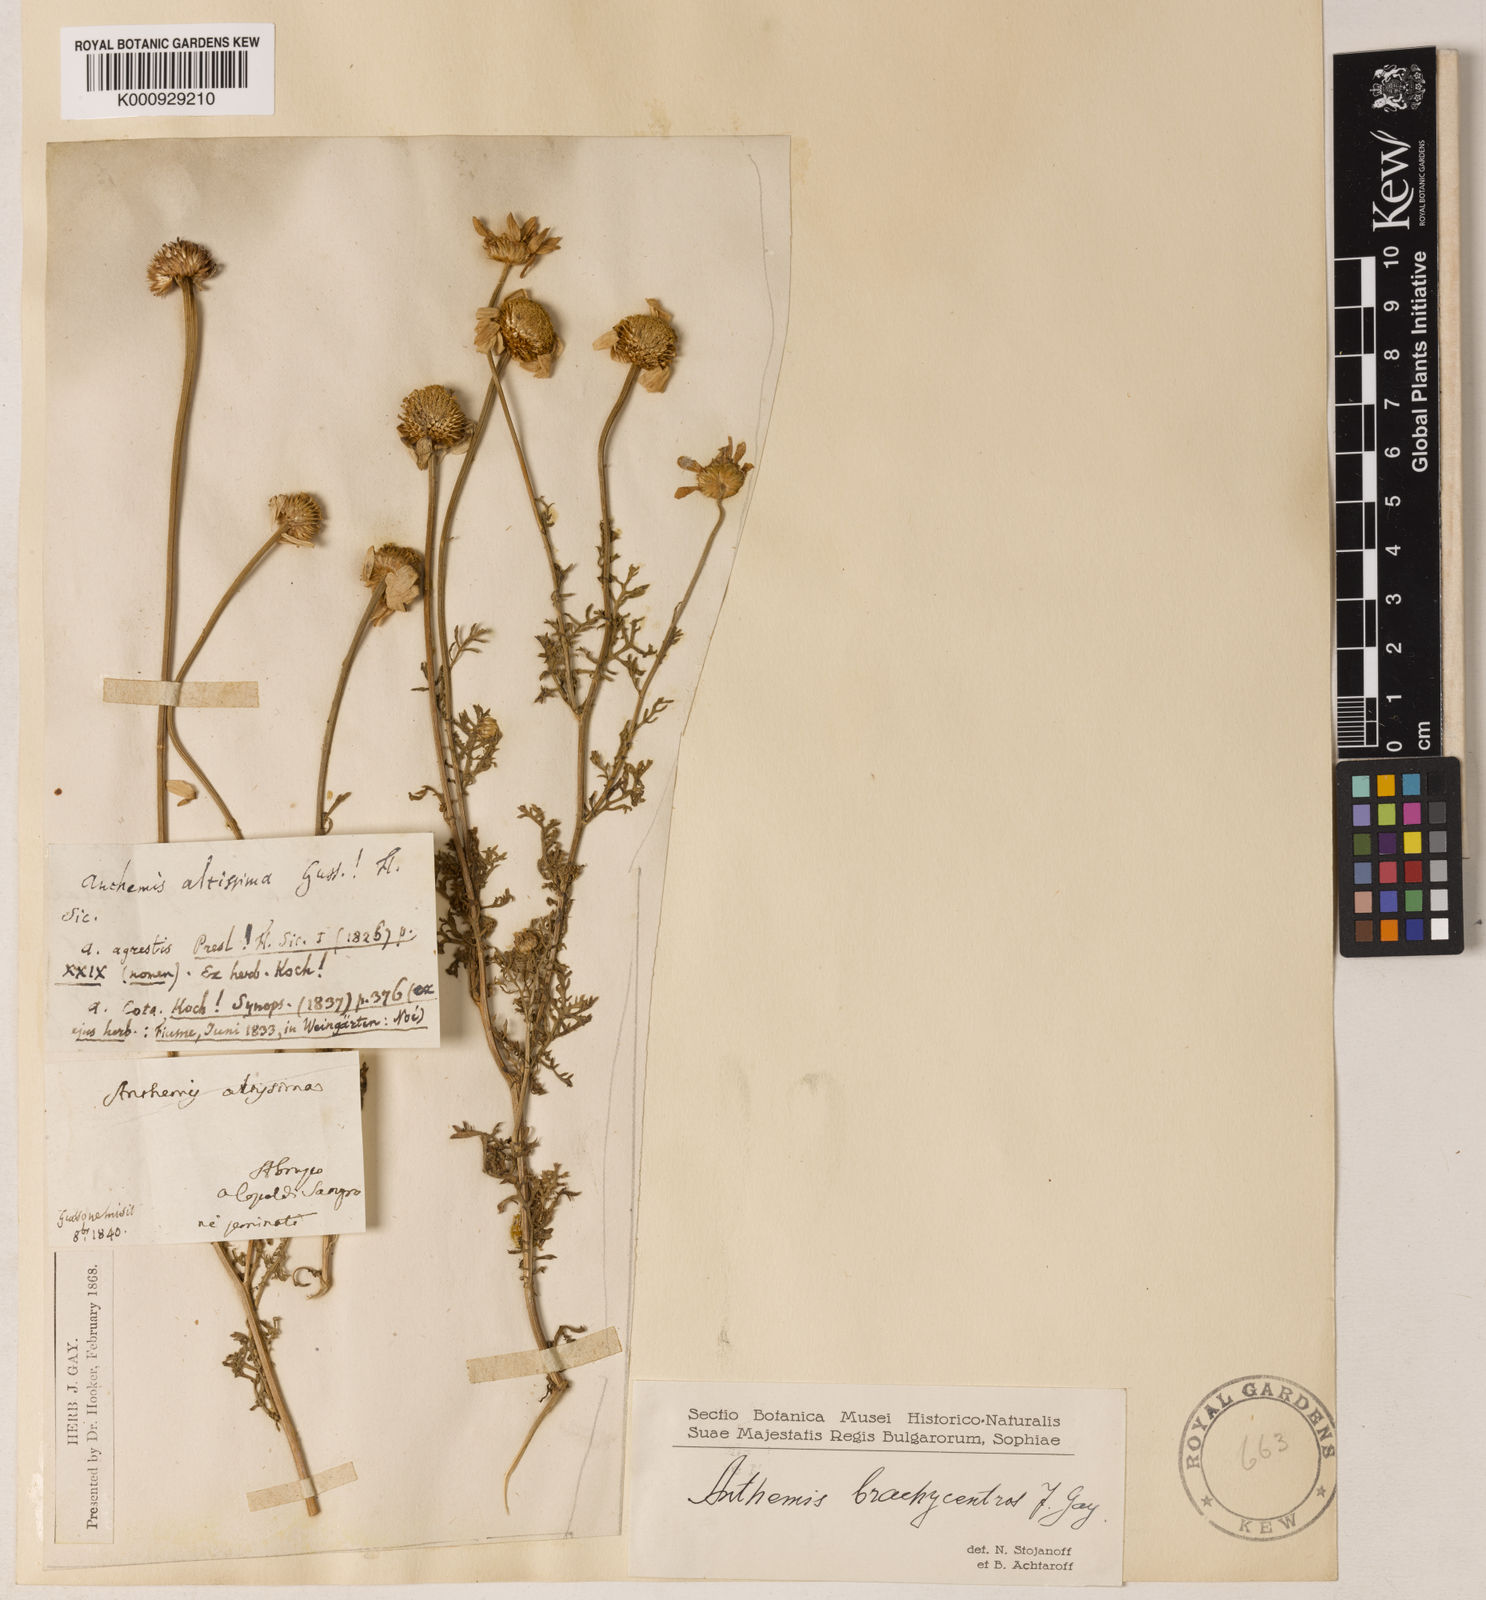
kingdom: Plantae
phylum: Tracheophyta
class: Magnoliopsida
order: Asterales
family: Asteraceae
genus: Cota
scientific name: Cota segetalis
